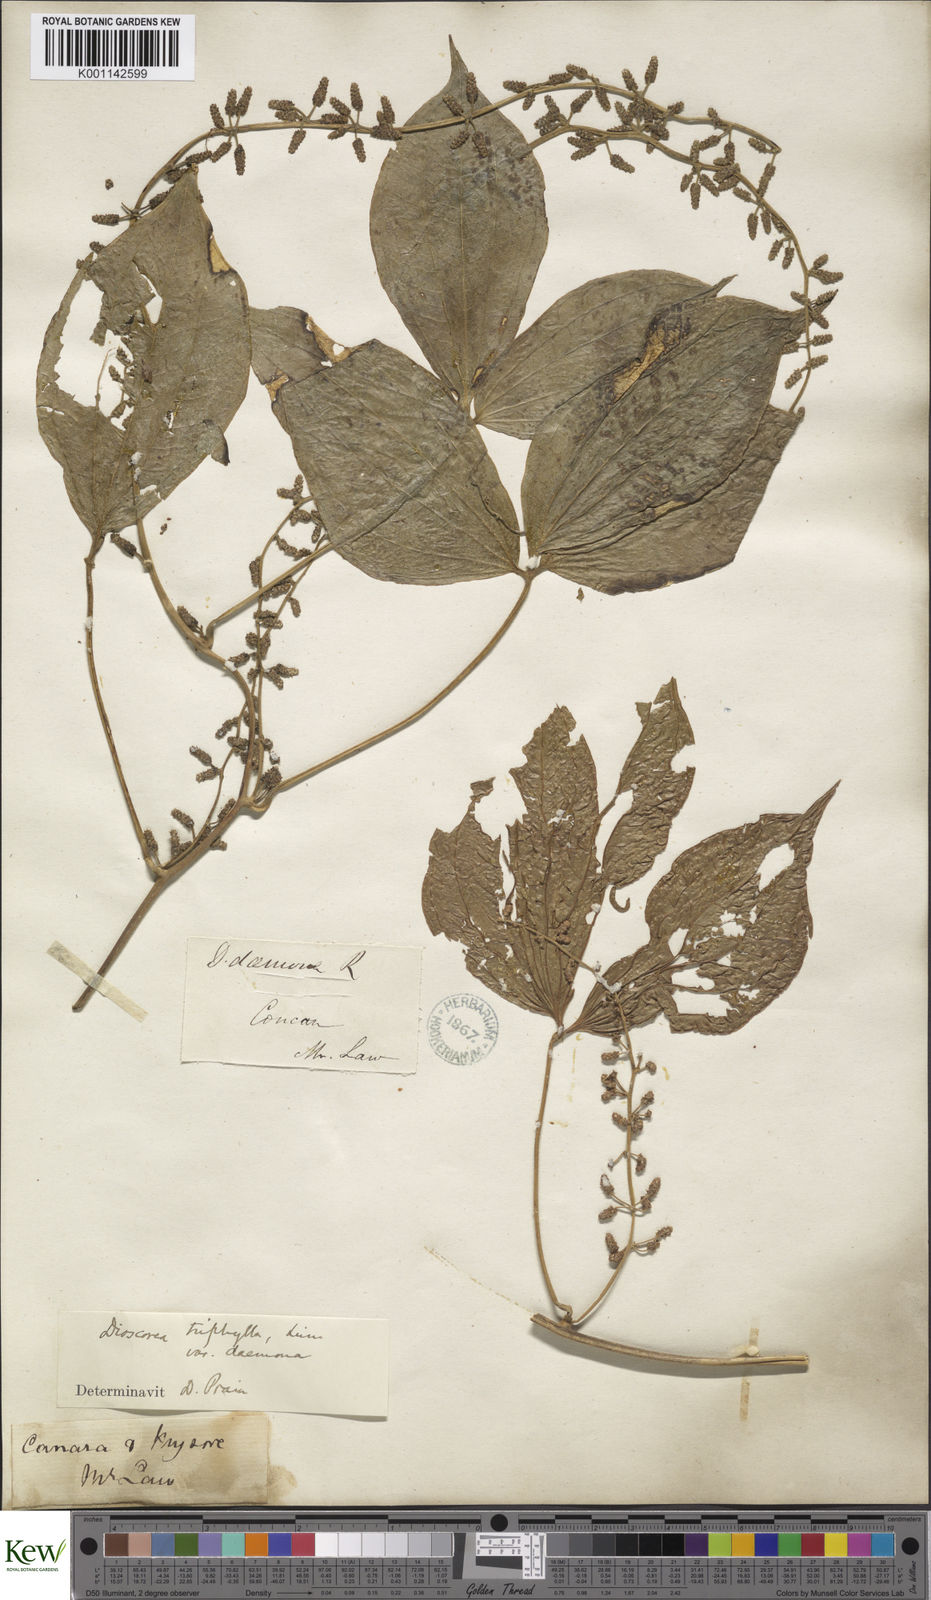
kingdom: Plantae
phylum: Tracheophyta
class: Liliopsida
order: Dioscoreales
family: Dioscoreaceae
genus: Dioscorea
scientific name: Dioscorea pentaphylla
